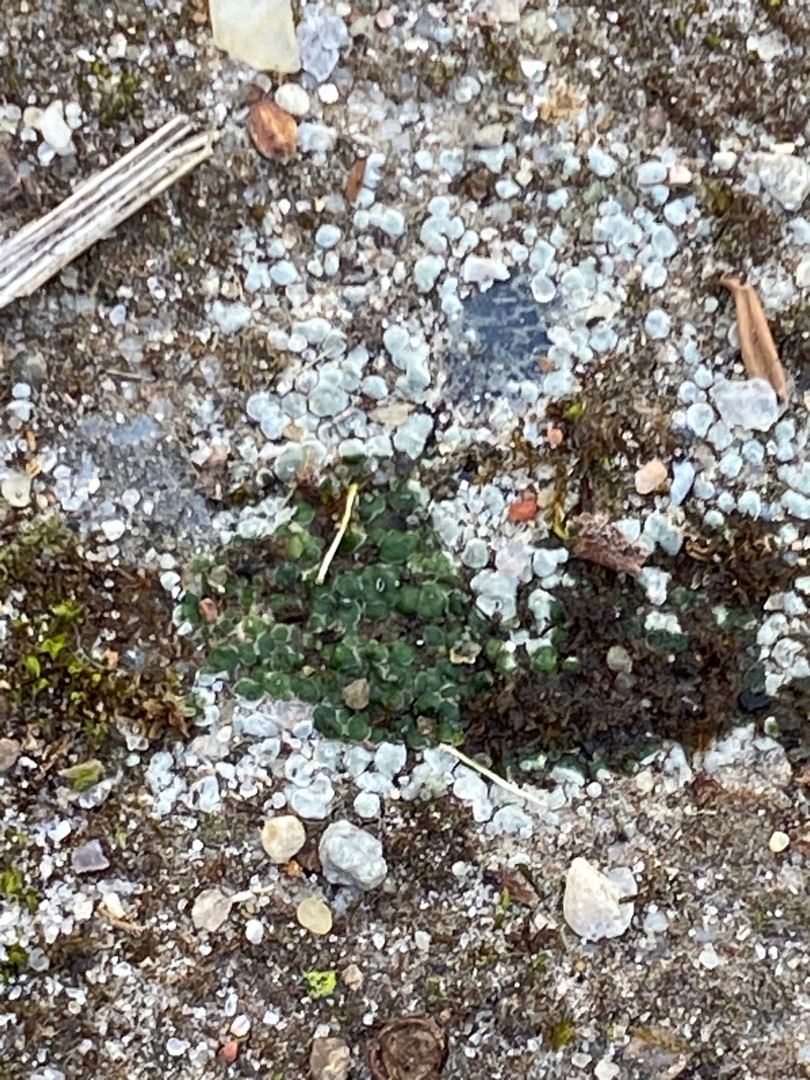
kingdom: Fungi
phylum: Ascomycota
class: Lecanoromycetes
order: Pertusariales
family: Megasporaceae
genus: Circinaria
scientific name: Circinaria contorta
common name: Indviklet hulskivelav
